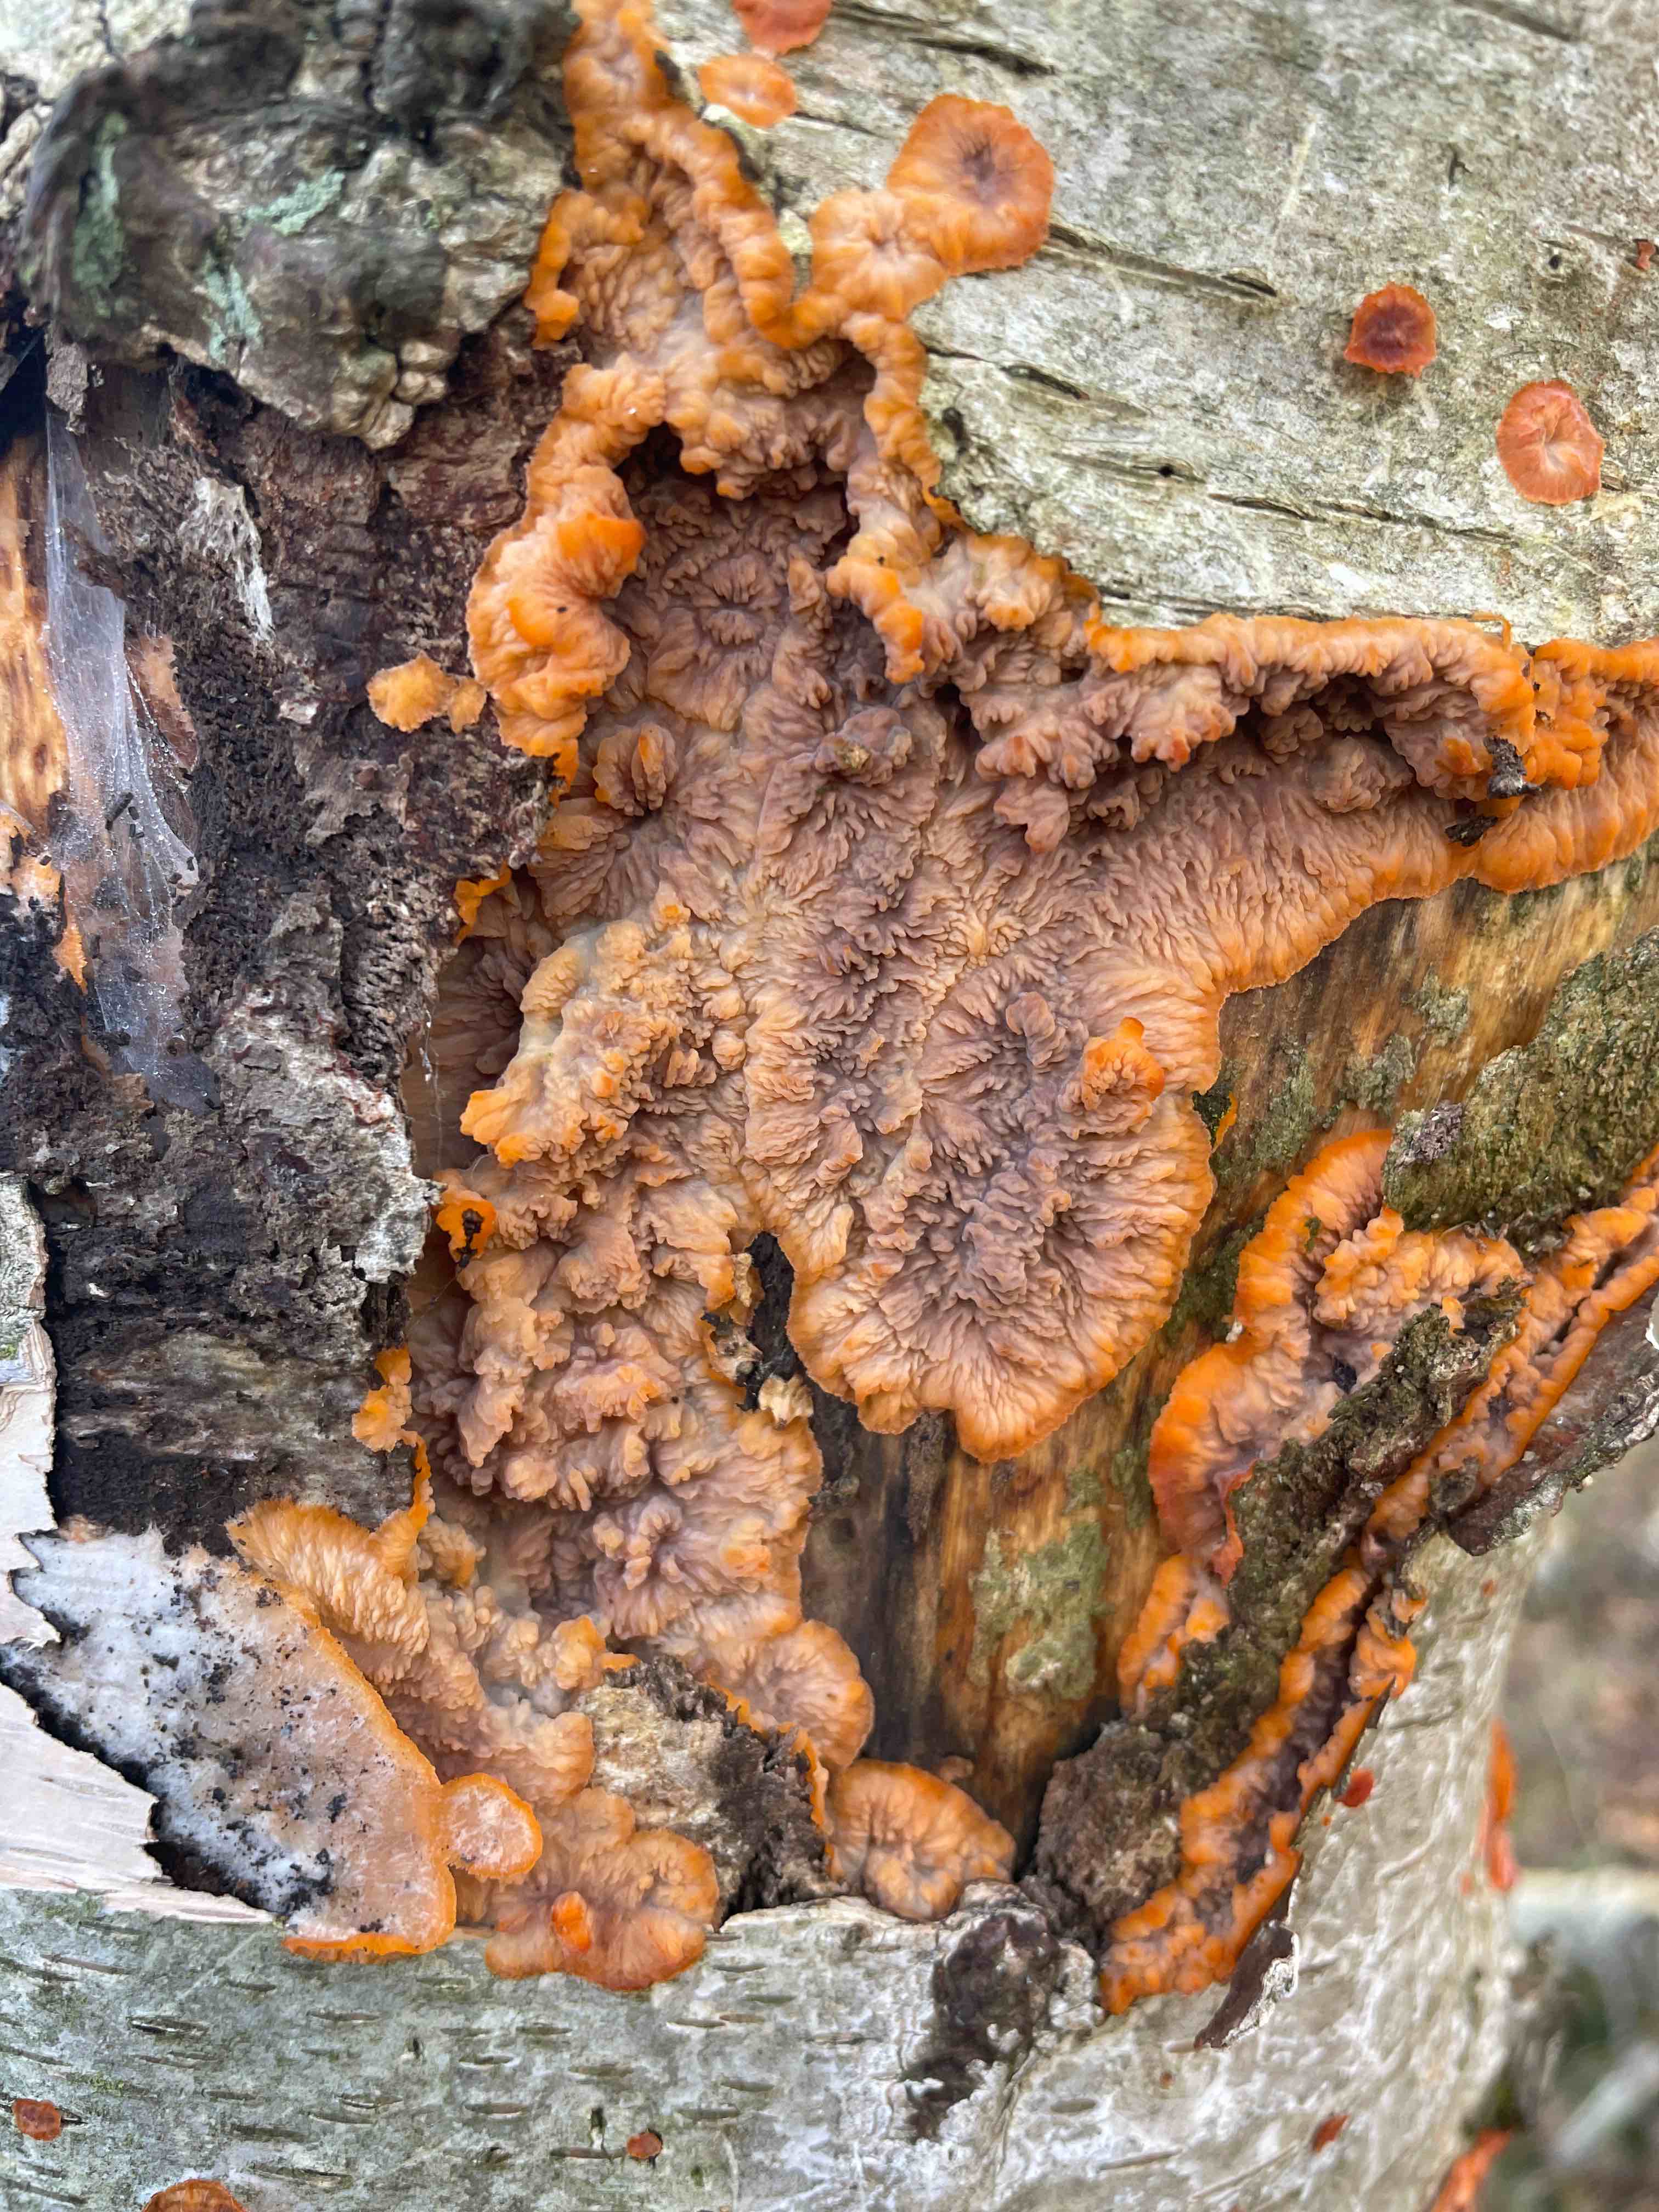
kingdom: Fungi
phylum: Basidiomycota
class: Agaricomycetes
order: Polyporales
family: Meruliaceae
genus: Phlebia
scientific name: Phlebia radiata
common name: stråle-åresvamp
